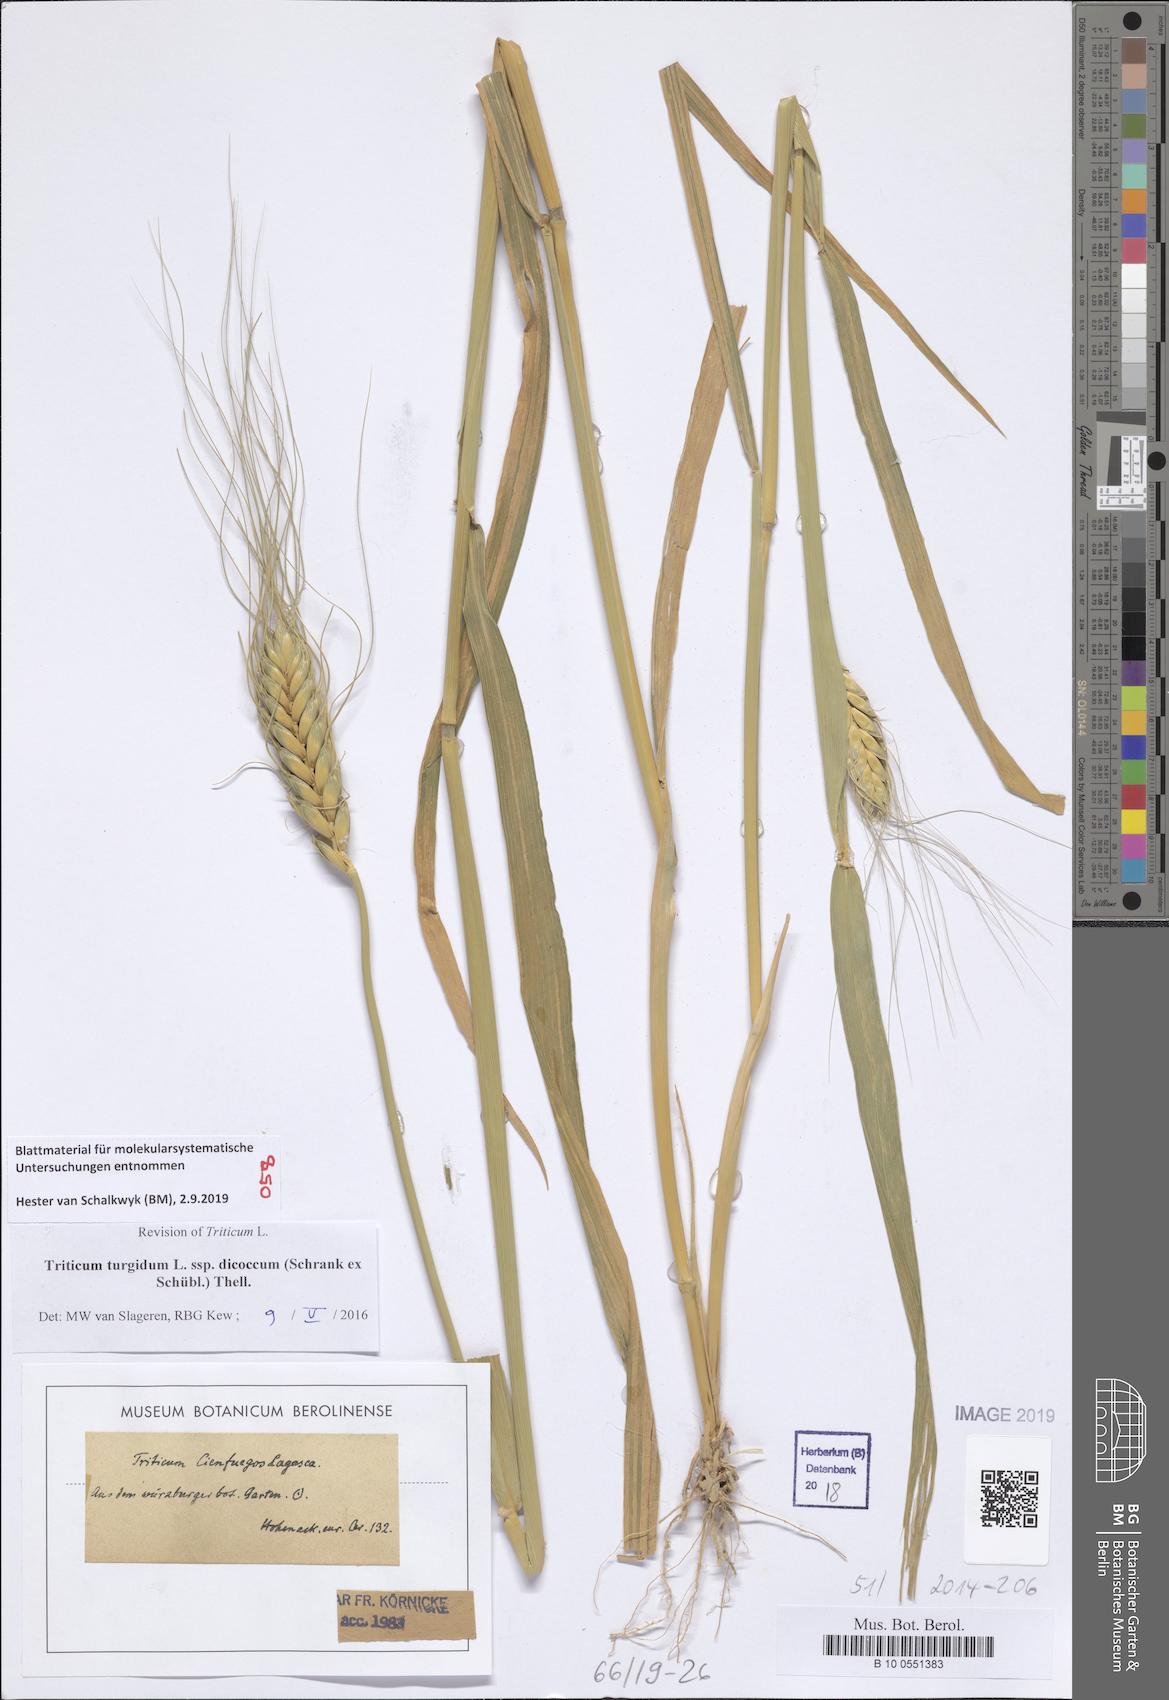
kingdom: Plantae
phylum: Tracheophyta
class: Liliopsida
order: Poales
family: Poaceae
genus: Triticum
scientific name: Triticum turgidum
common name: Rivet wheat
